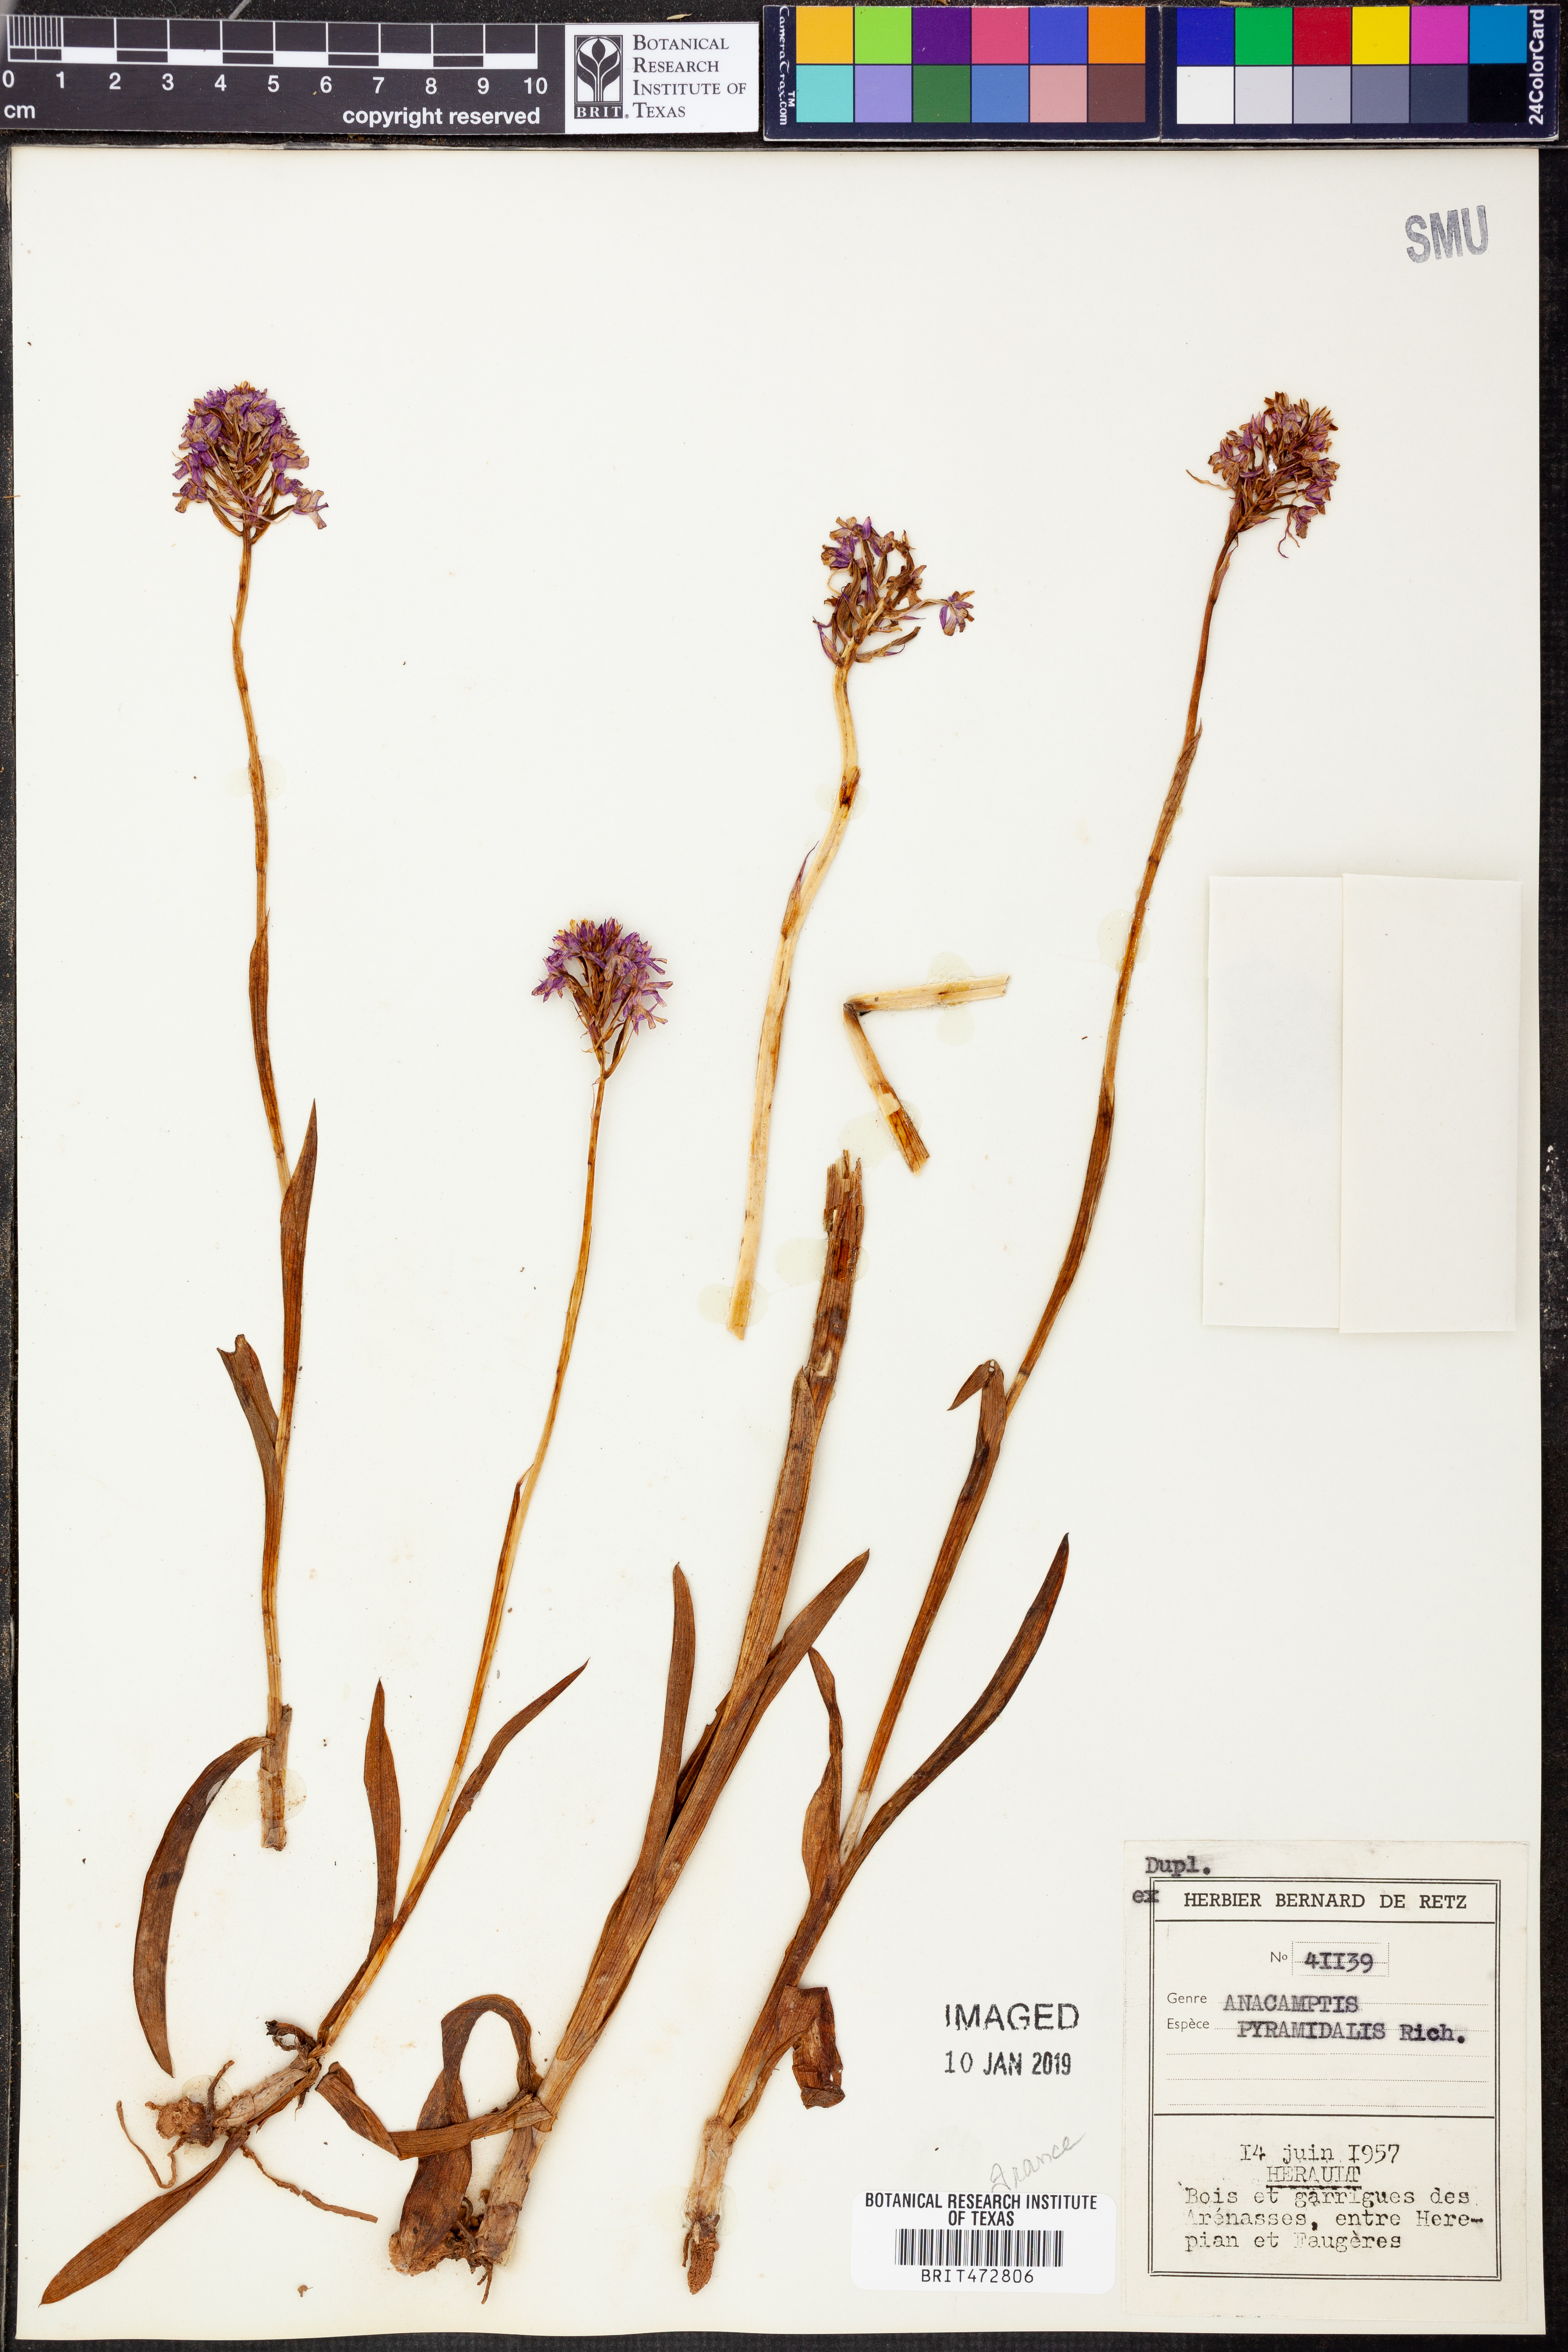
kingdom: Plantae
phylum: Tracheophyta
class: Liliopsida
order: Asparagales
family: Orchidaceae
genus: Anacamptis
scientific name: Anacamptis pyramidalis
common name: Pyramidal orchid
